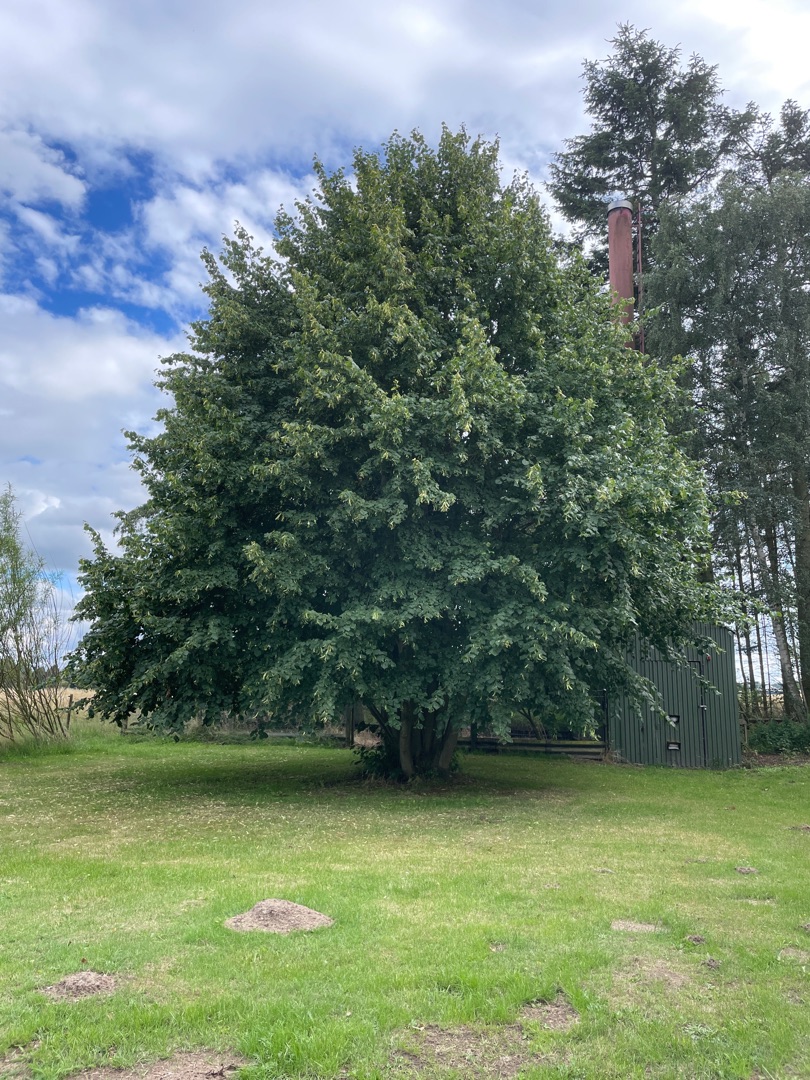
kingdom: Plantae
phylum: Tracheophyta
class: Magnoliopsida
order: Malvales
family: Malvaceae
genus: Tilia
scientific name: Tilia
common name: Lindeslægten
